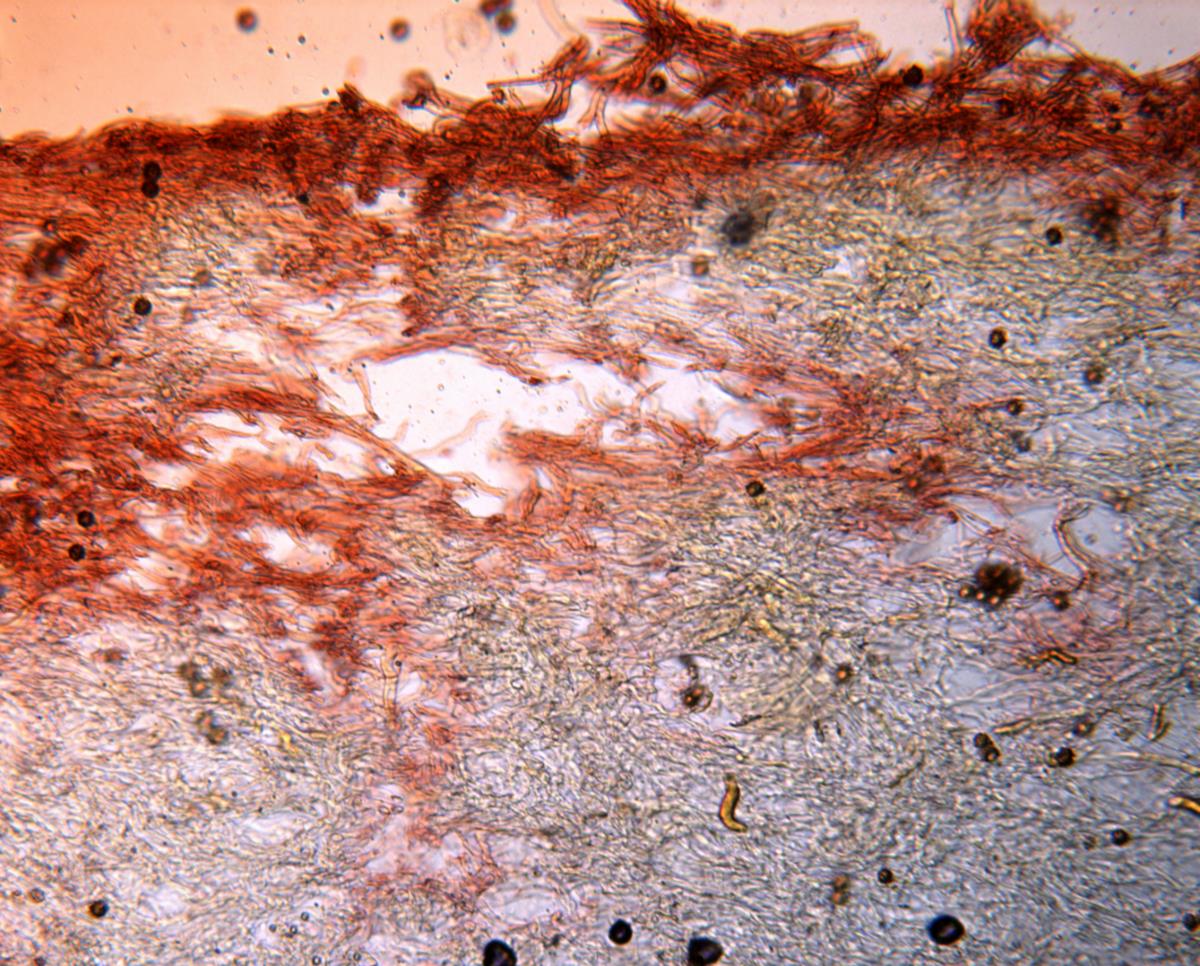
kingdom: Fungi
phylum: Basidiomycota
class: Agaricomycetes
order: Boletales
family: Boletaceae
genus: Octaviania
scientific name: Octaviania
